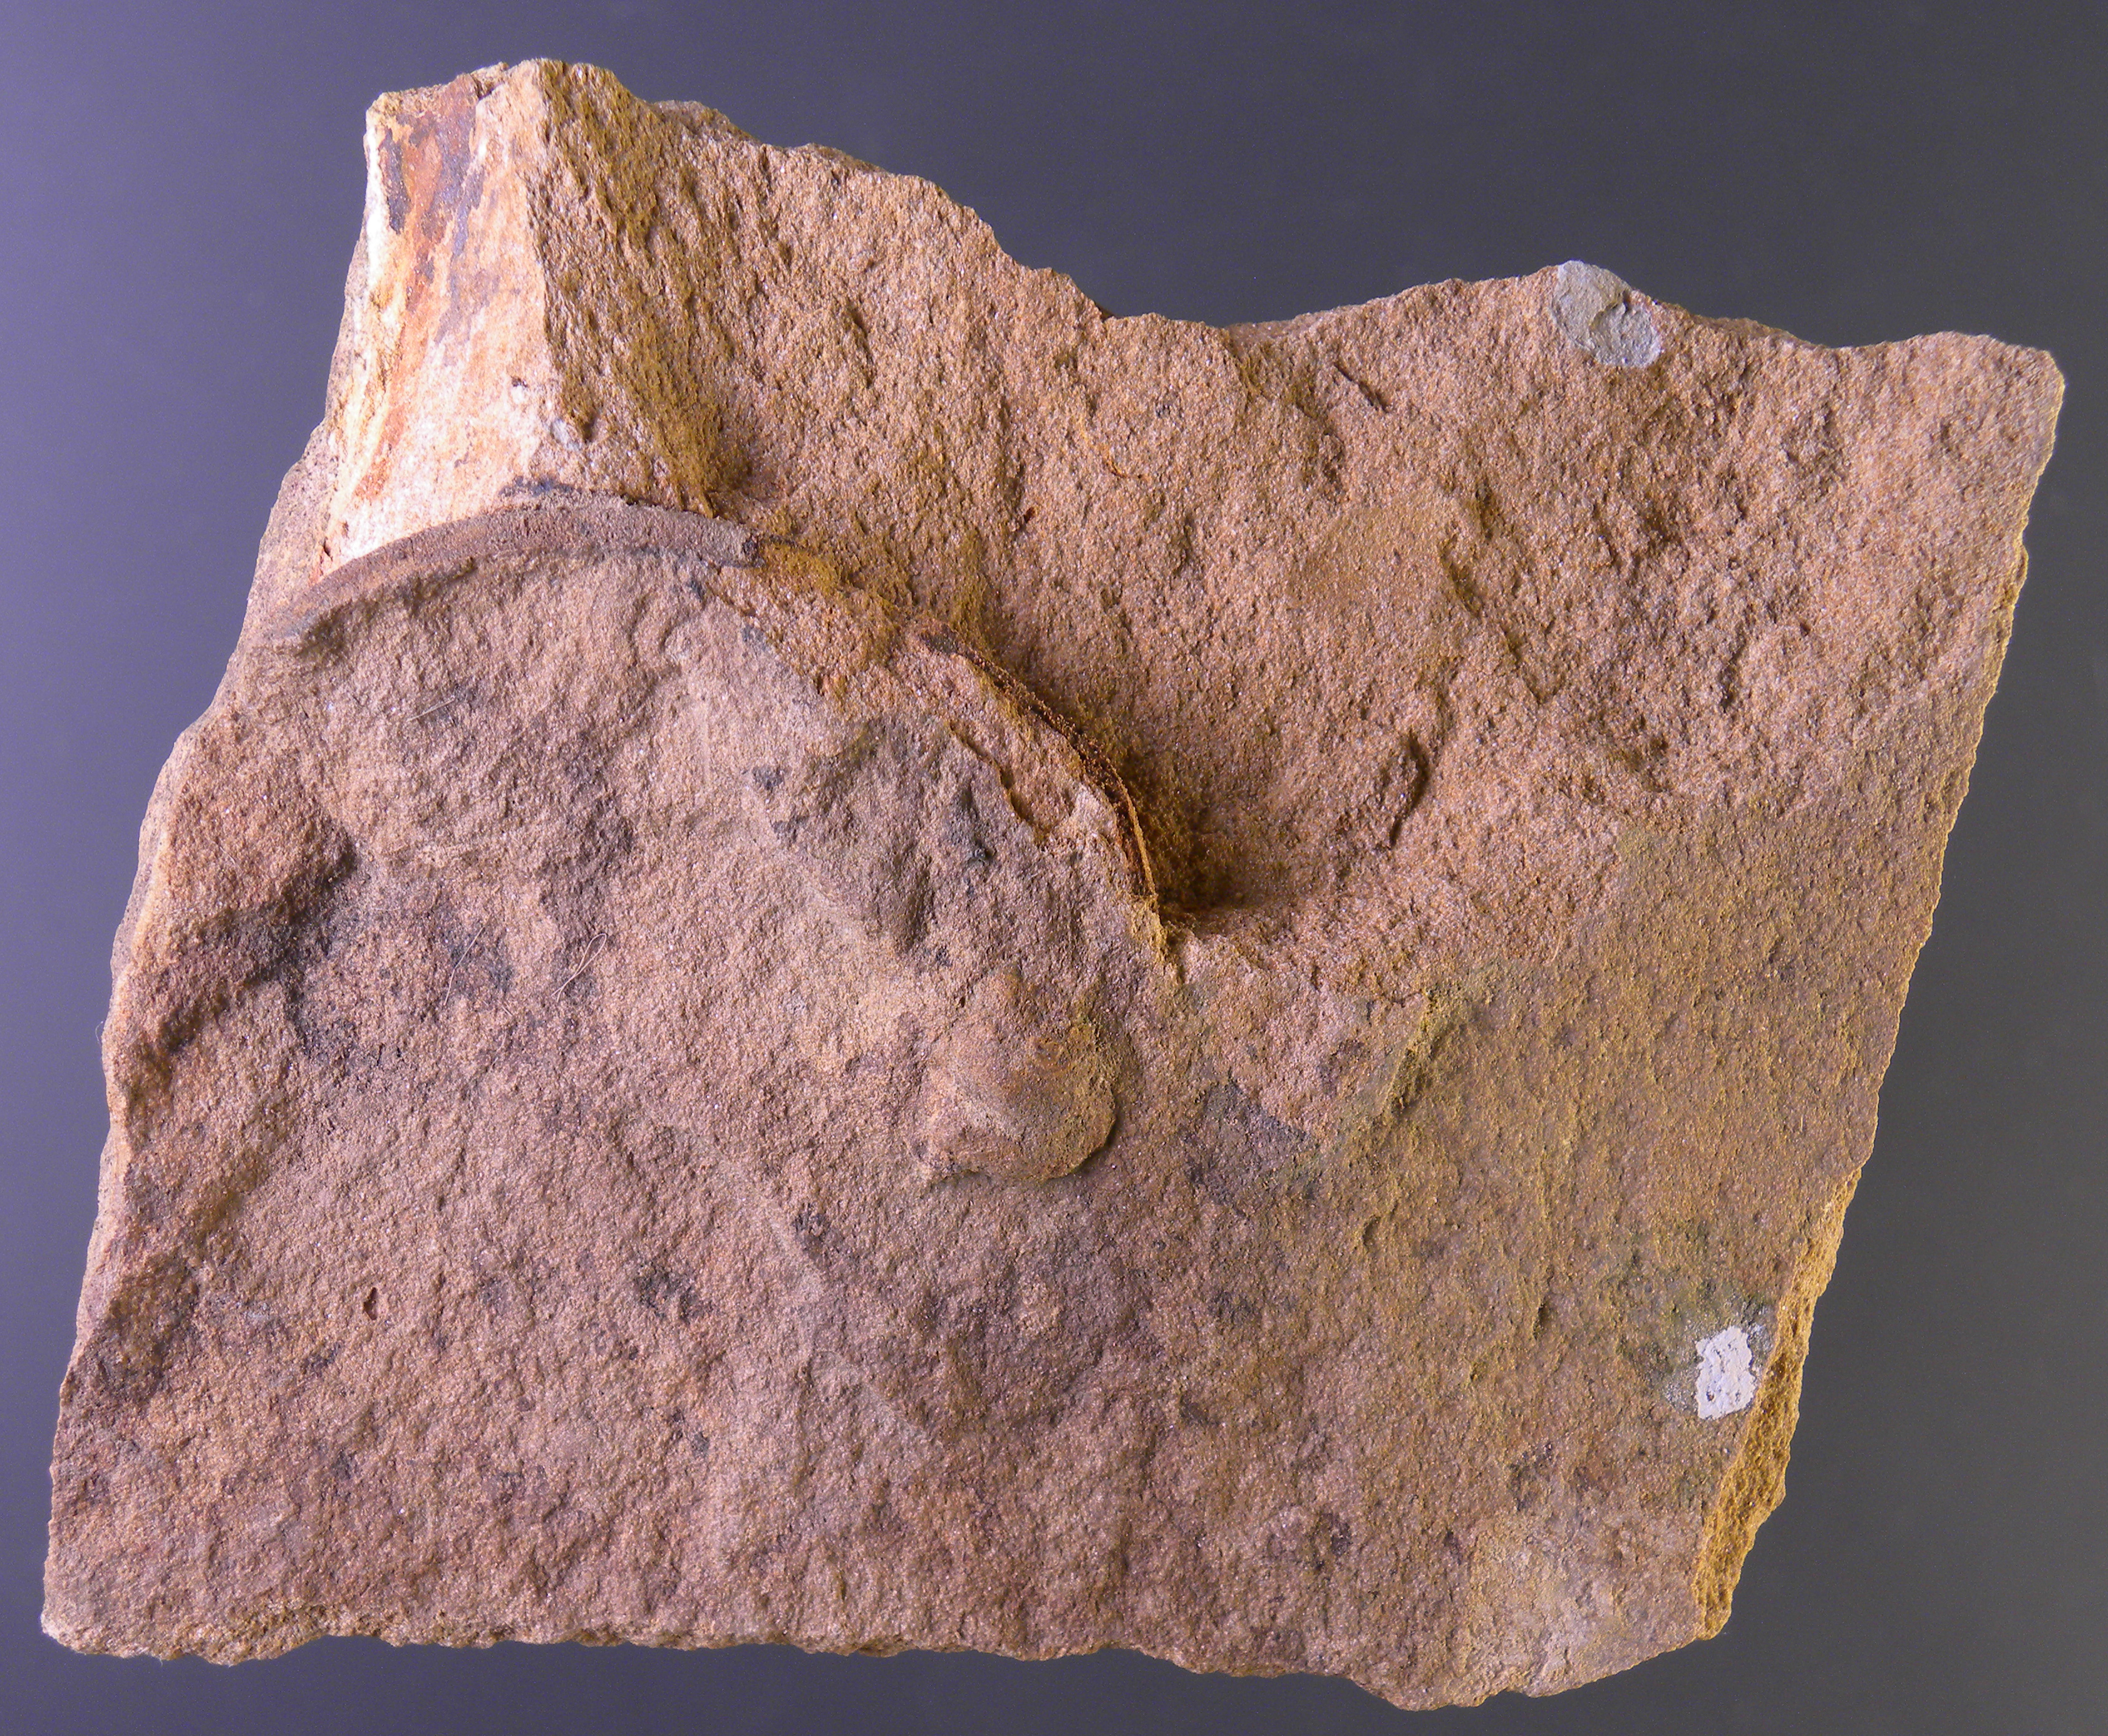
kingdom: Animalia
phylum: Arthropoda
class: Trilobita
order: Phacopida
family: Homalonotidae
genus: Digonus
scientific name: Digonus
